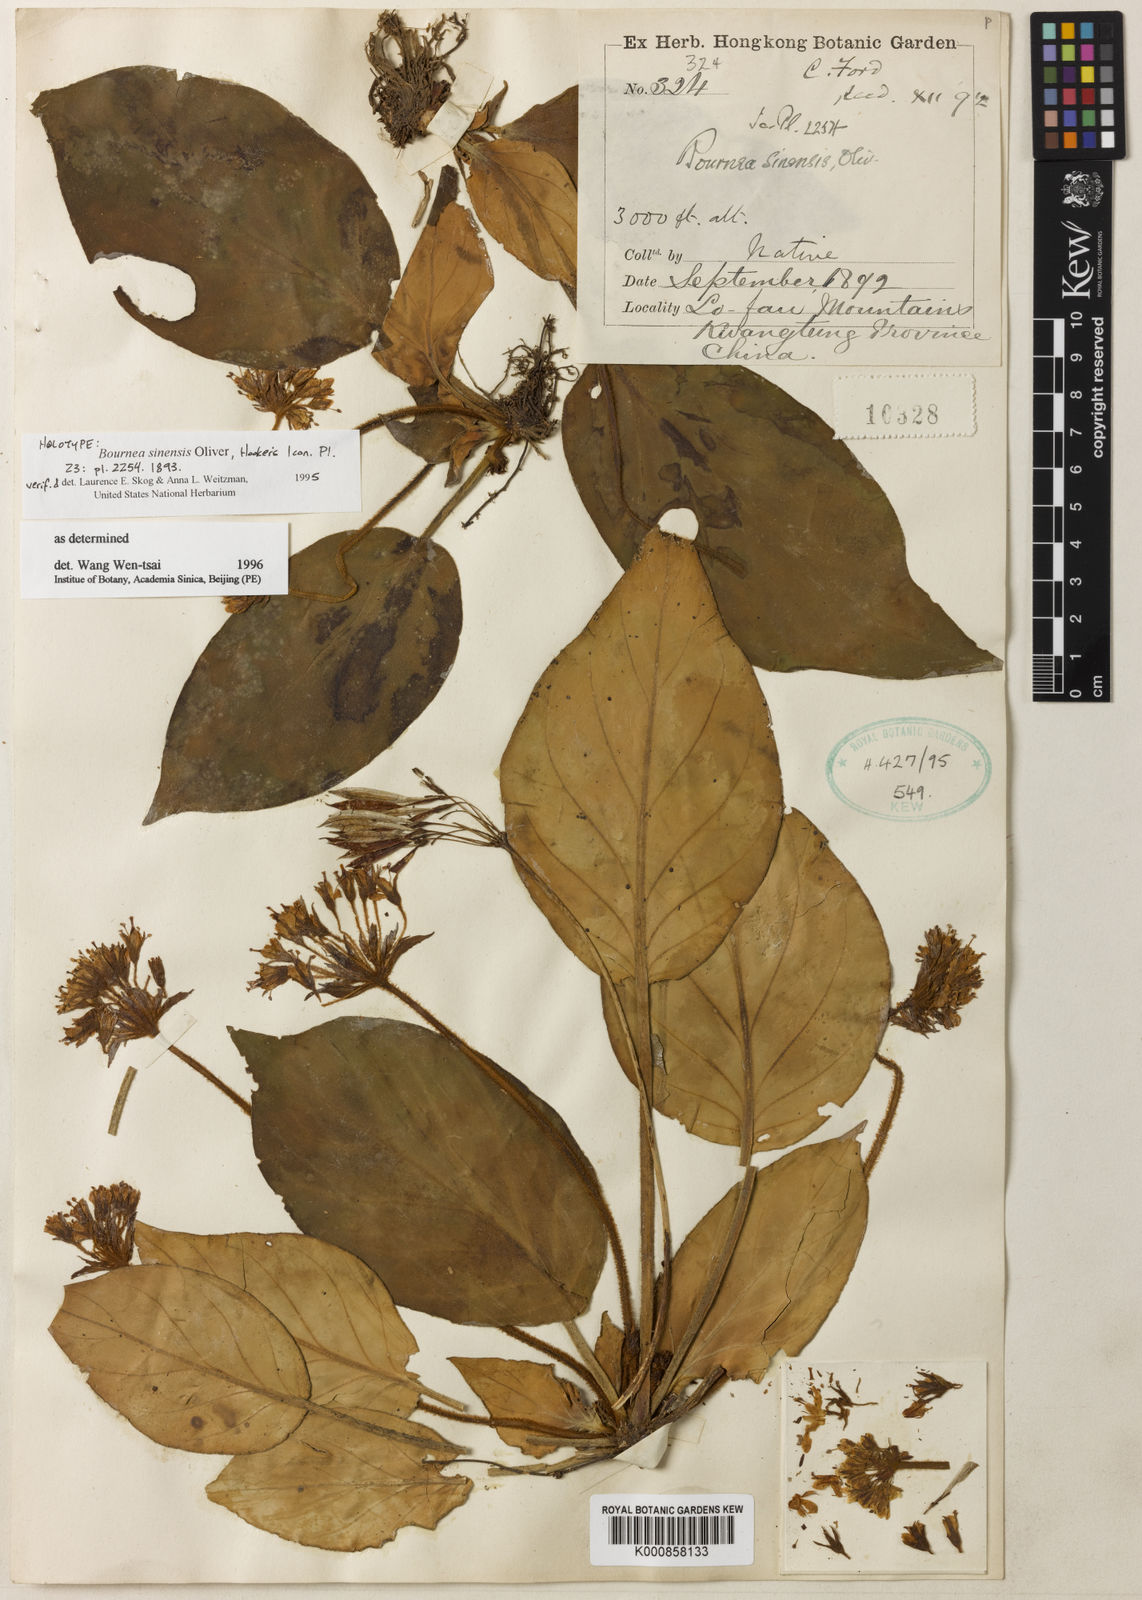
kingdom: Plantae
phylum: Tracheophyta
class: Magnoliopsida
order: Lamiales
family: Gesneriaceae
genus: Oreocharis
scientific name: Oreocharis sinensis
